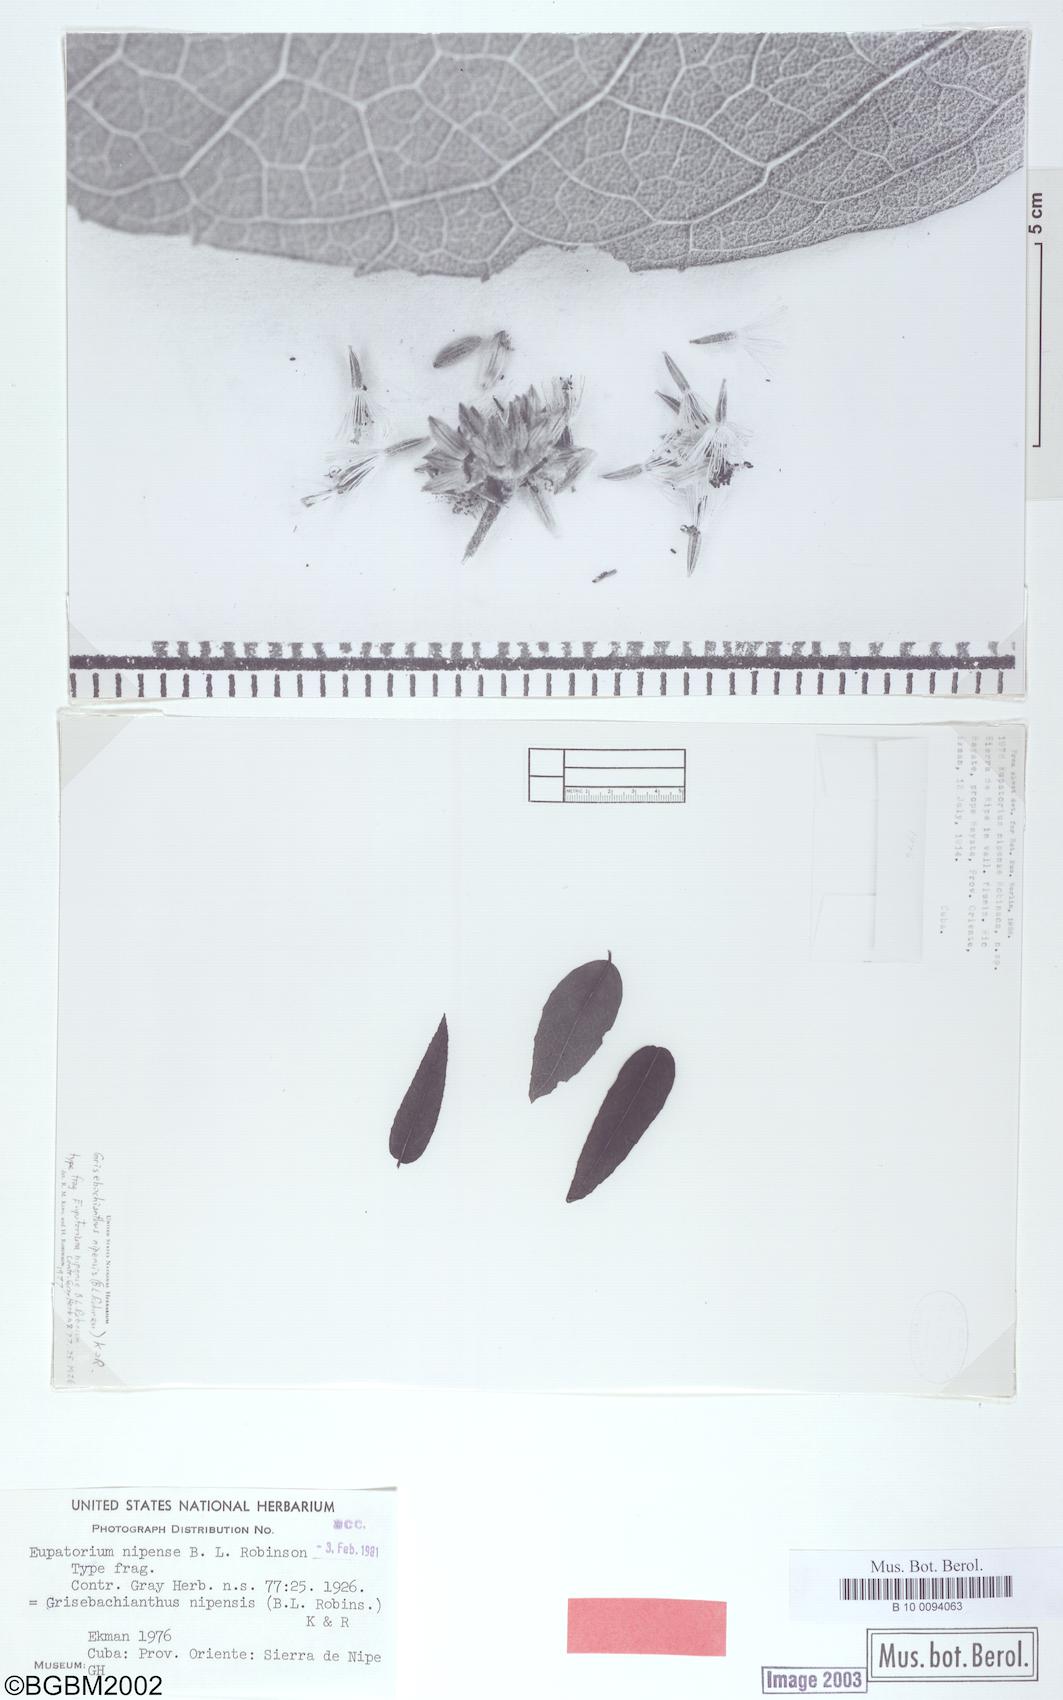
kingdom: Plantae
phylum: Tracheophyta
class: Magnoliopsida
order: Asterales
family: Asteraceae
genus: Grisebachianthus
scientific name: Grisebachianthus nipensis
